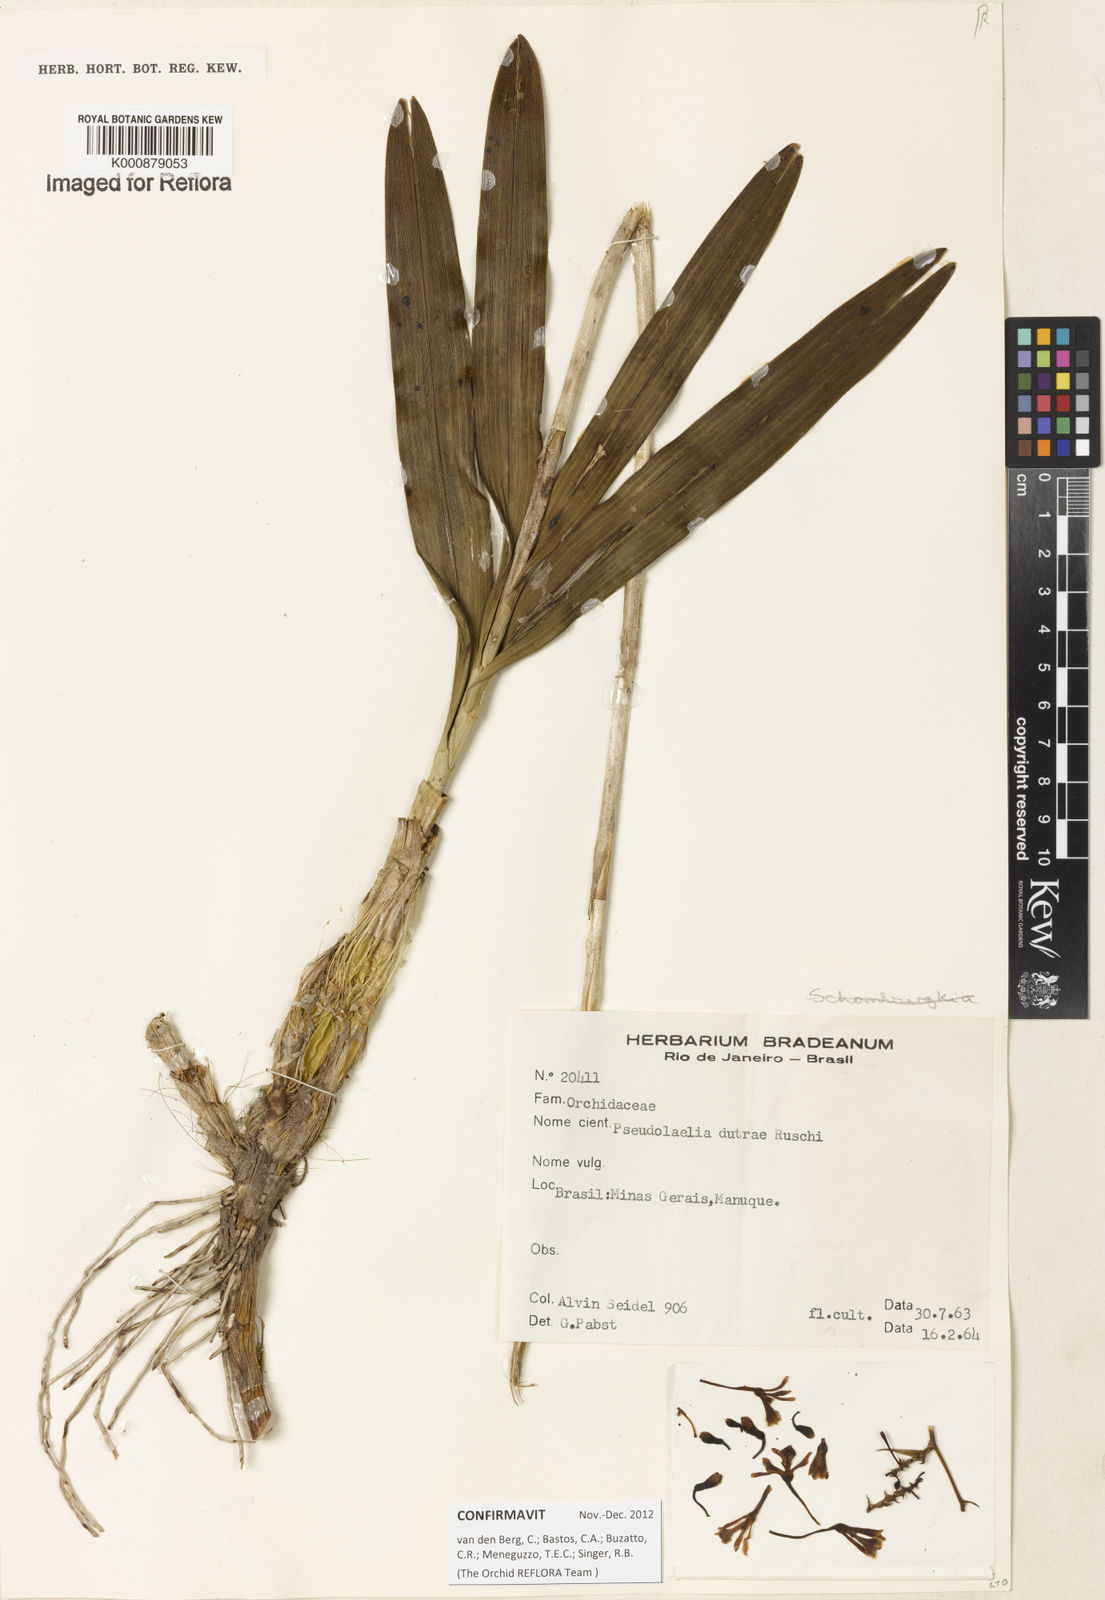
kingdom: Plantae
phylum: Tracheophyta
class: Liliopsida
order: Asparagales
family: Orchidaceae
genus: Pseudolaelia
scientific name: Pseudolaelia dutrae
